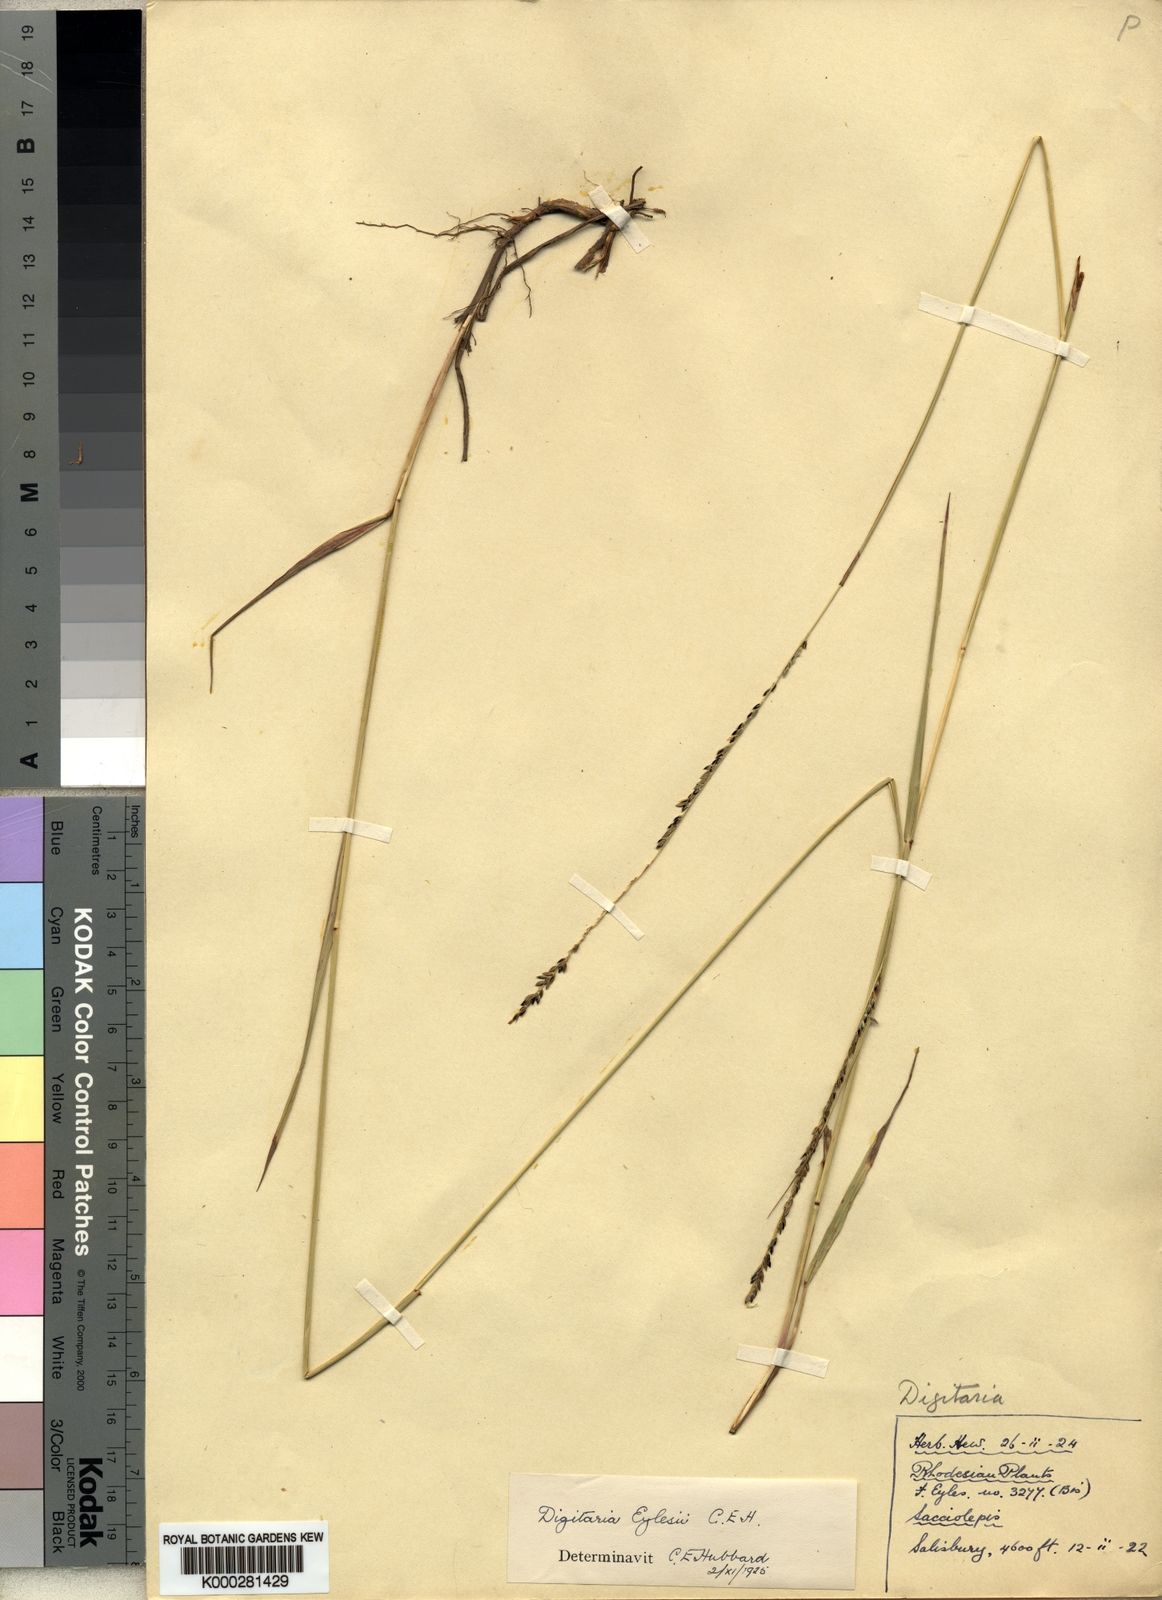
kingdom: Plantae
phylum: Tracheophyta
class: Liliopsida
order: Poales
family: Poaceae
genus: Digitaria
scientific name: Digitaria eylesii
